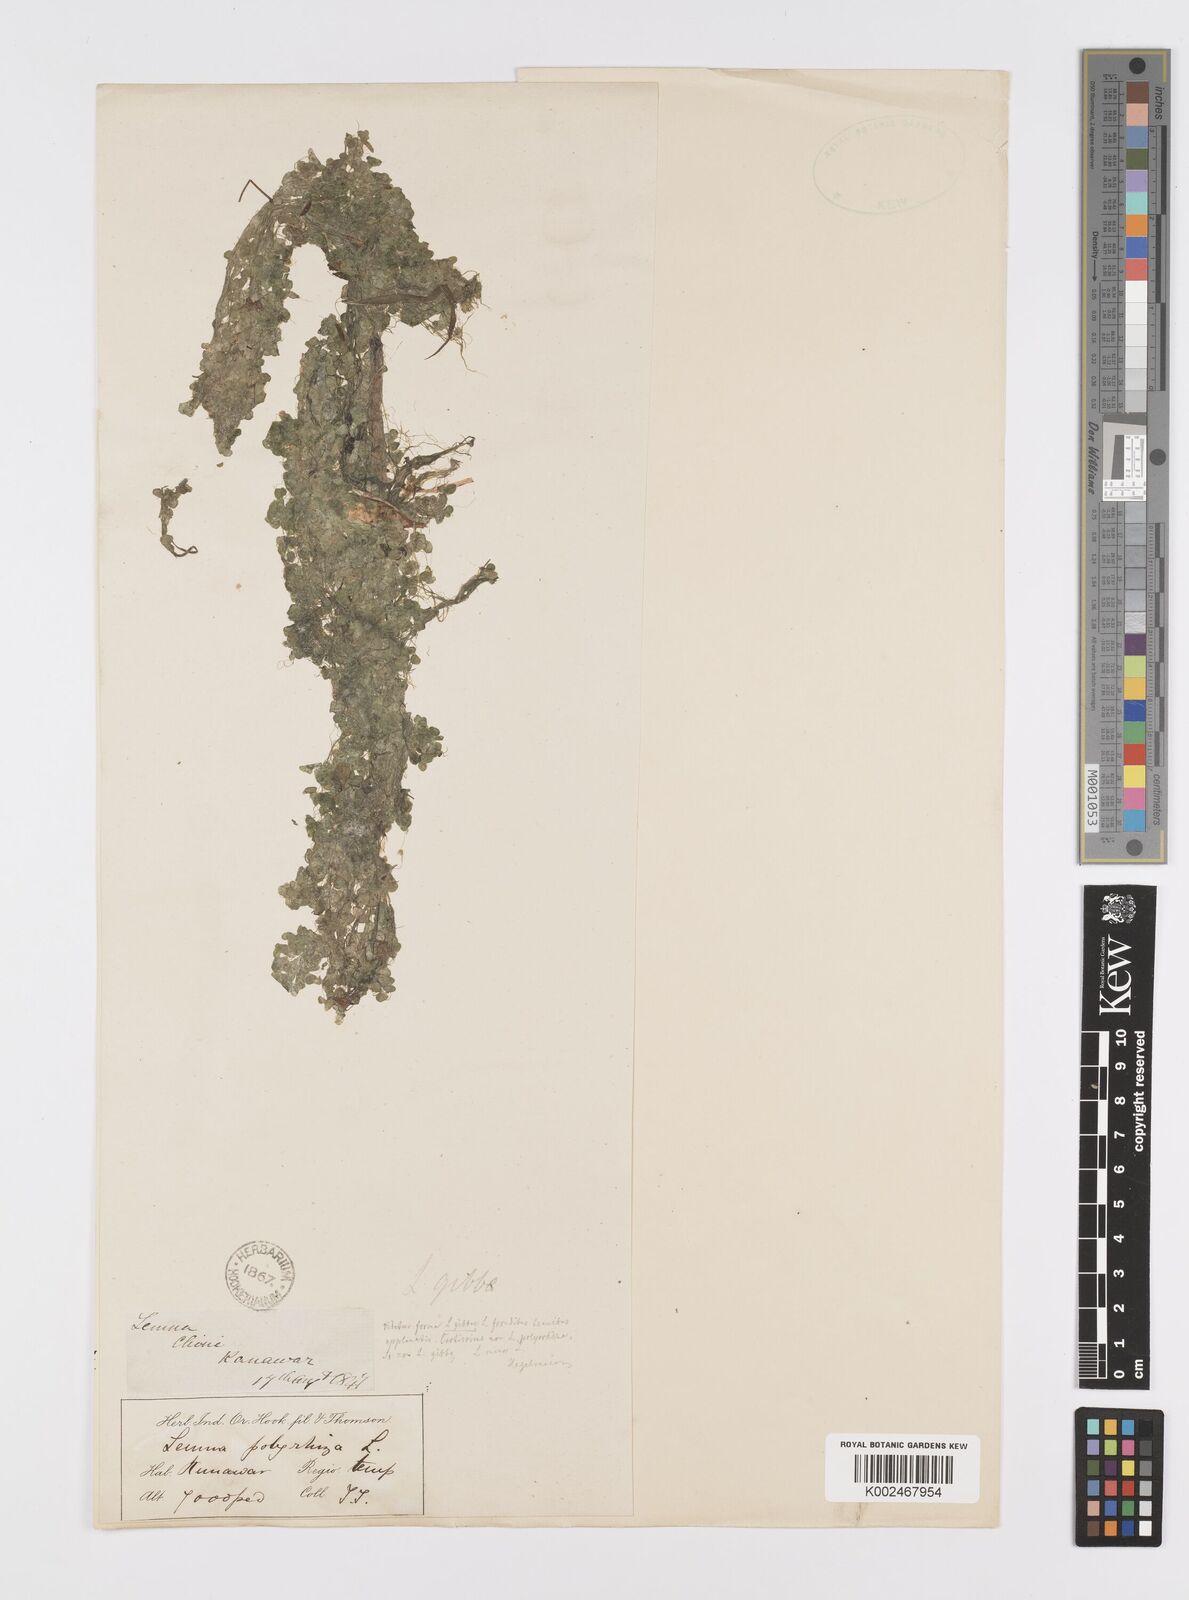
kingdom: Plantae
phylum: Tracheophyta
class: Liliopsida
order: Alismatales
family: Araceae
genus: Lemna
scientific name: Lemna gibba
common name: Fat duckweed
